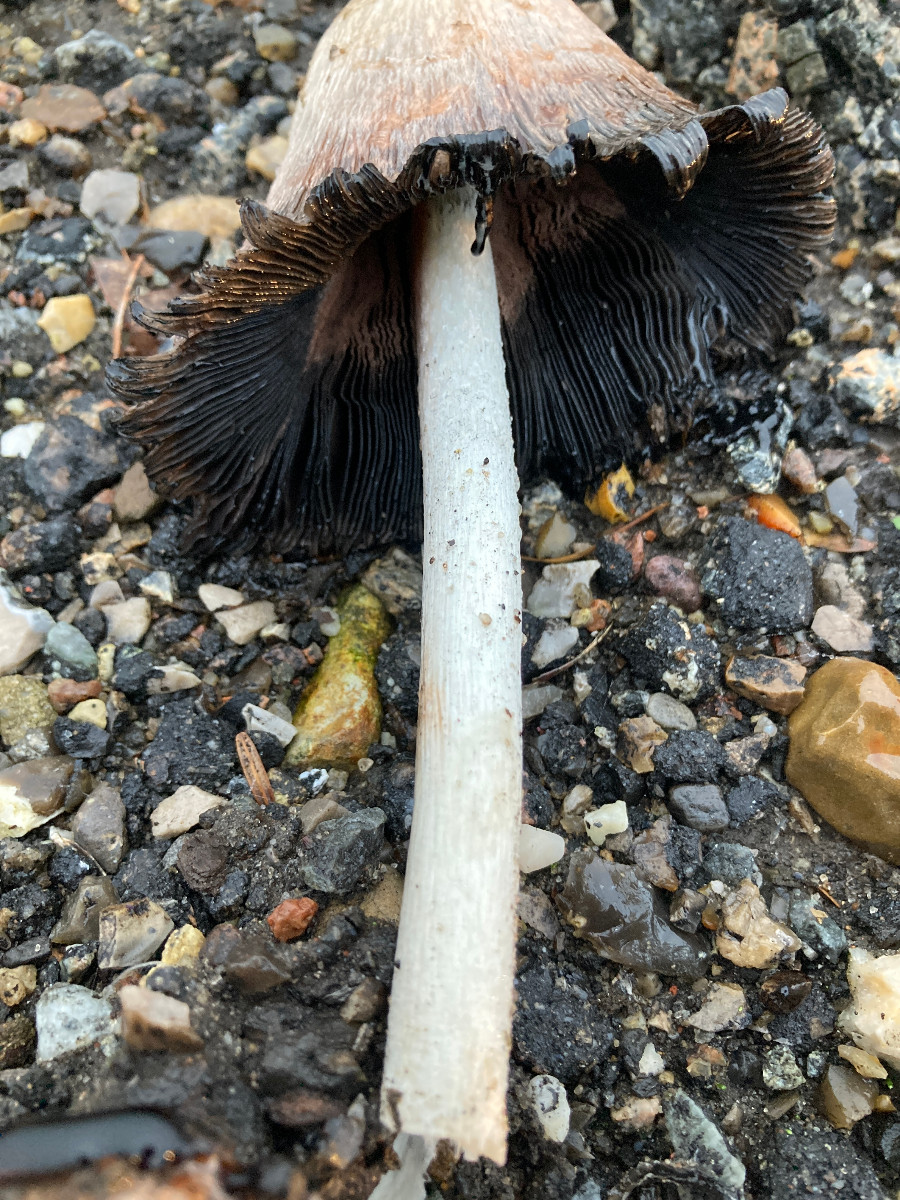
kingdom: Fungi
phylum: Basidiomycota
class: Agaricomycetes
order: Agaricales
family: Agaricaceae
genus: Coprinus
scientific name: Coprinus comatus
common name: stor parykhat
